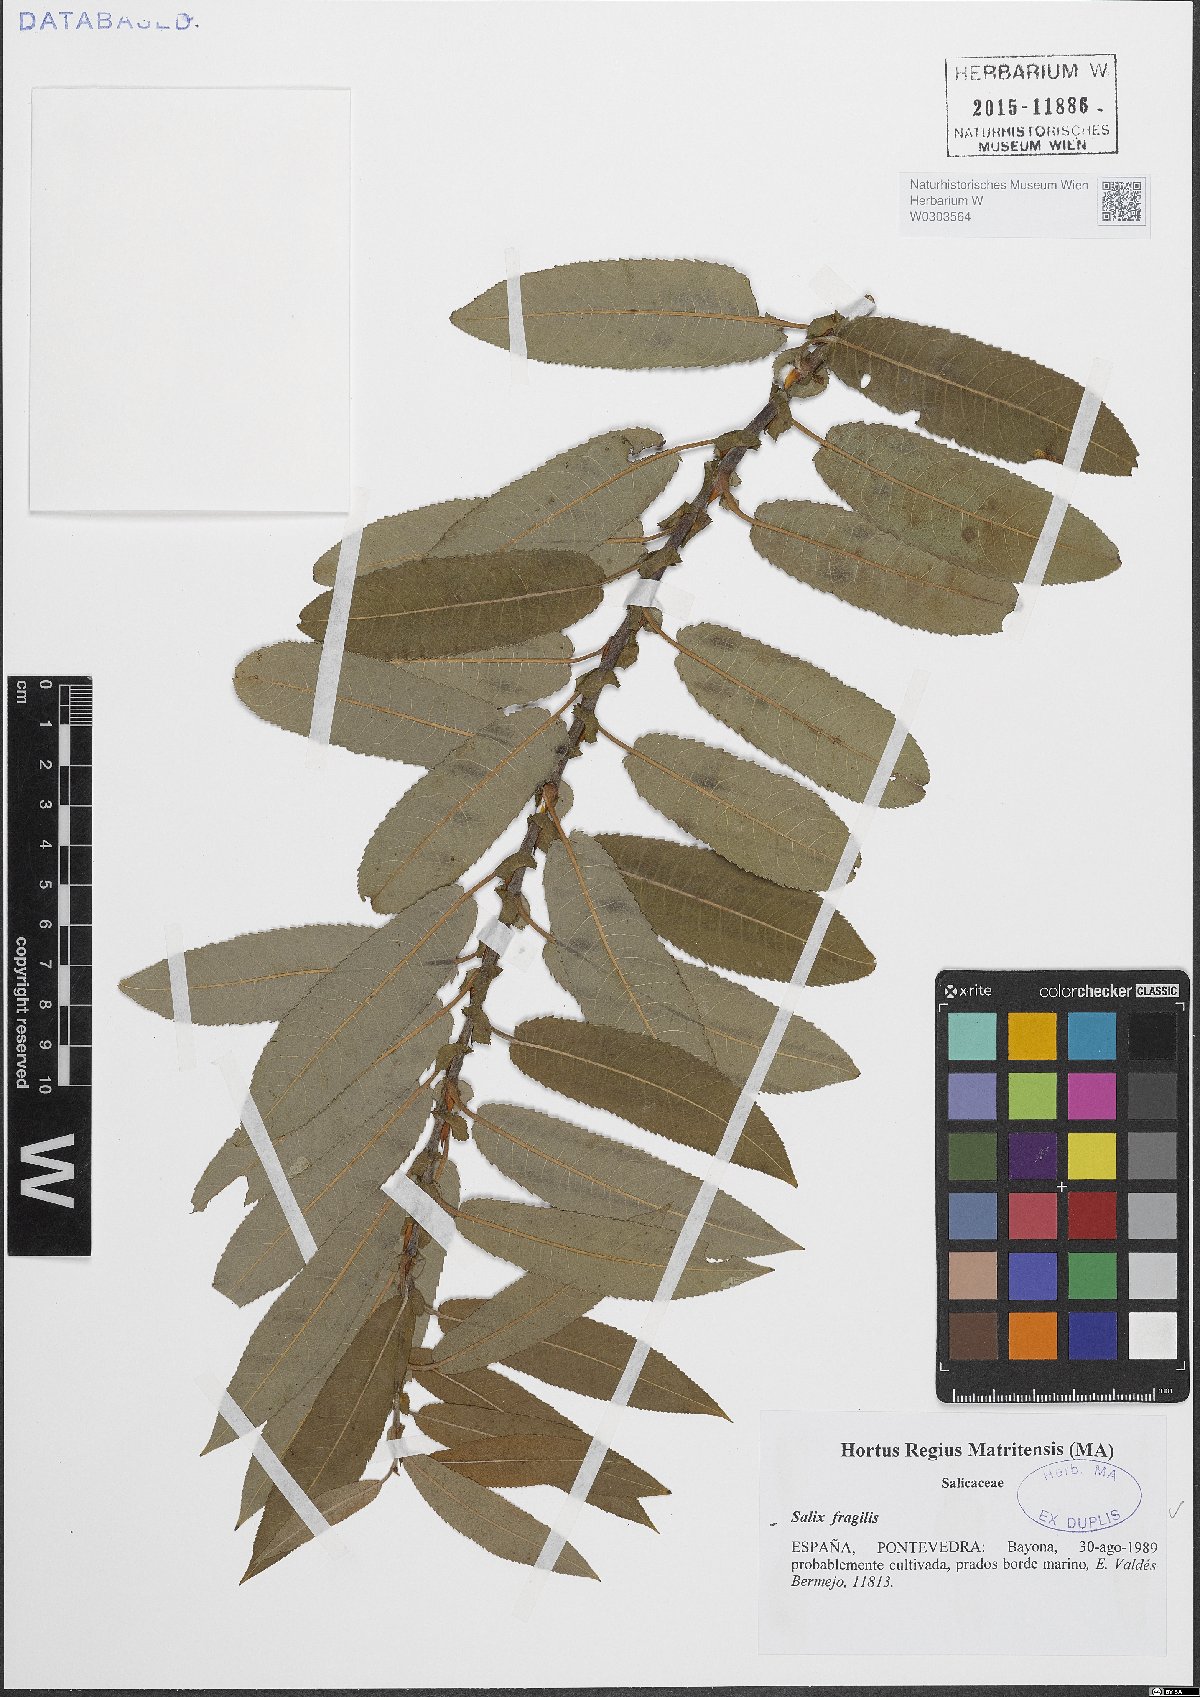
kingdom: Plantae
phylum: Tracheophyta
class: Magnoliopsida
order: Malpighiales
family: Salicaceae
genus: Salix
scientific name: Salix fragilis
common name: Crack willow
